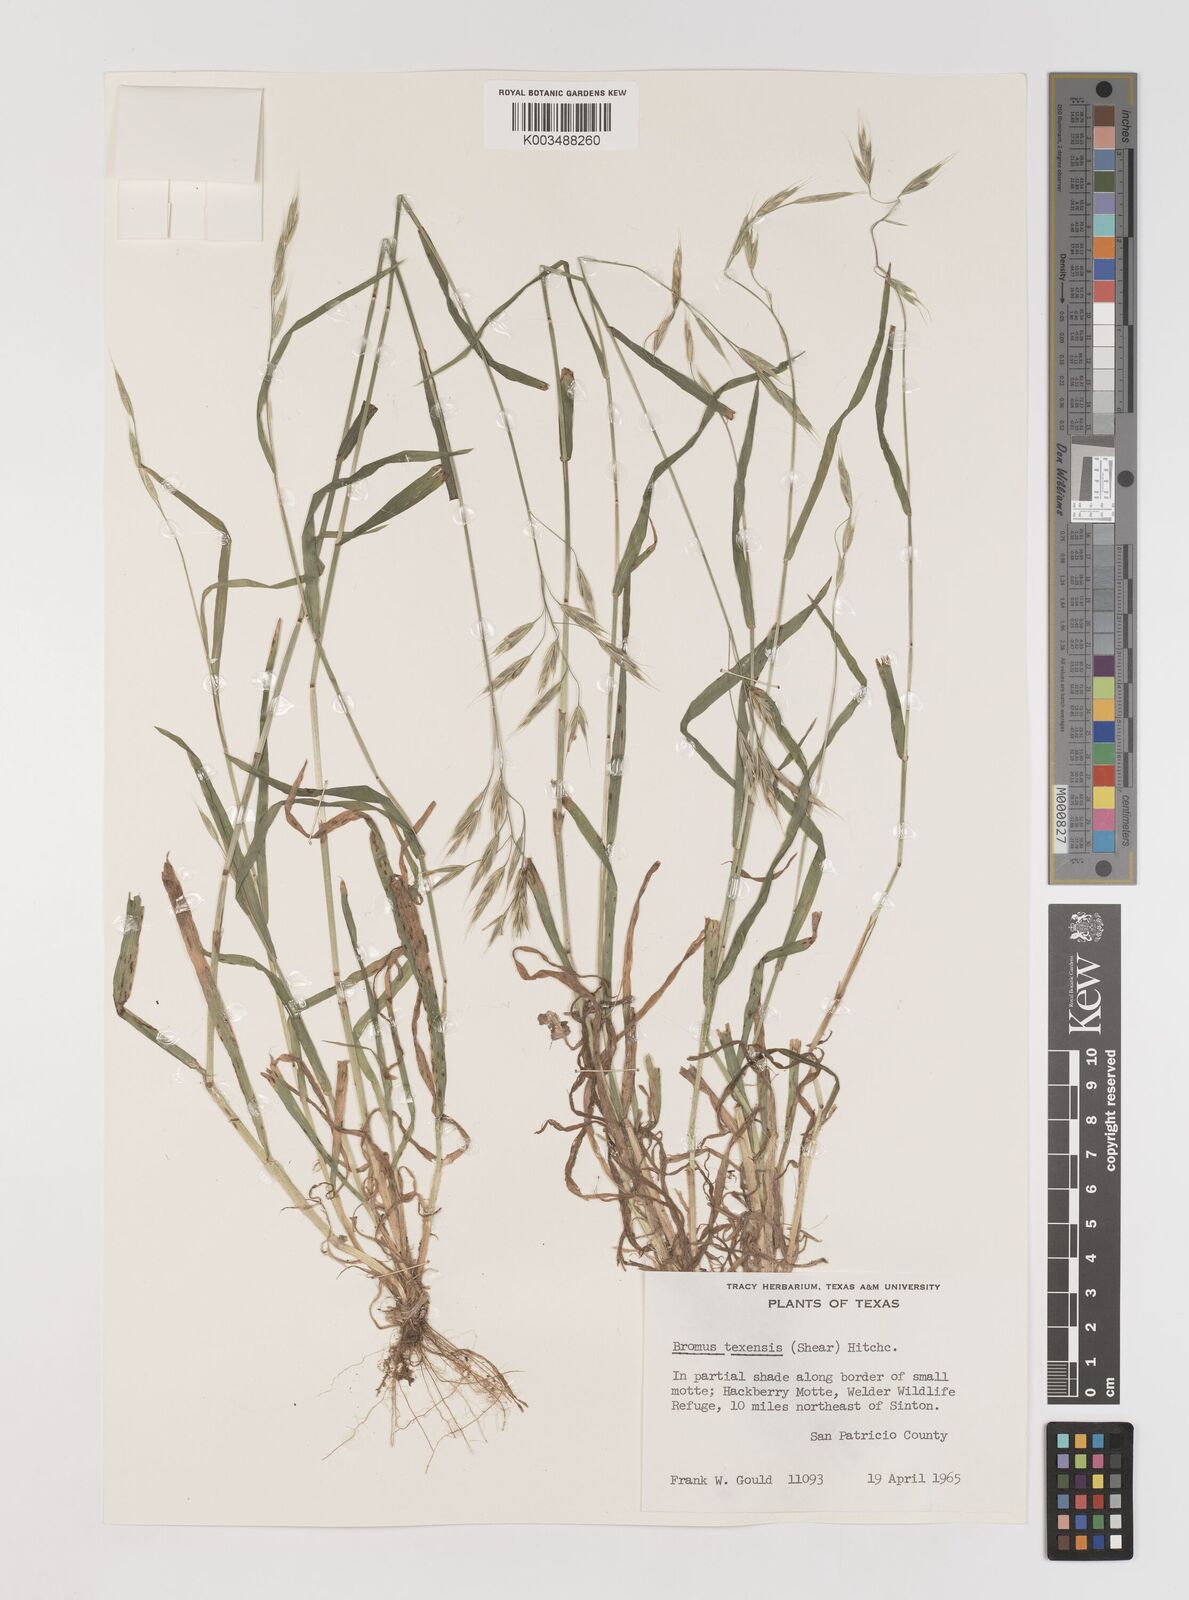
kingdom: Plantae
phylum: Tracheophyta
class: Liliopsida
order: Poales
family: Poaceae
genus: Bromus
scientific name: Bromus texensis
